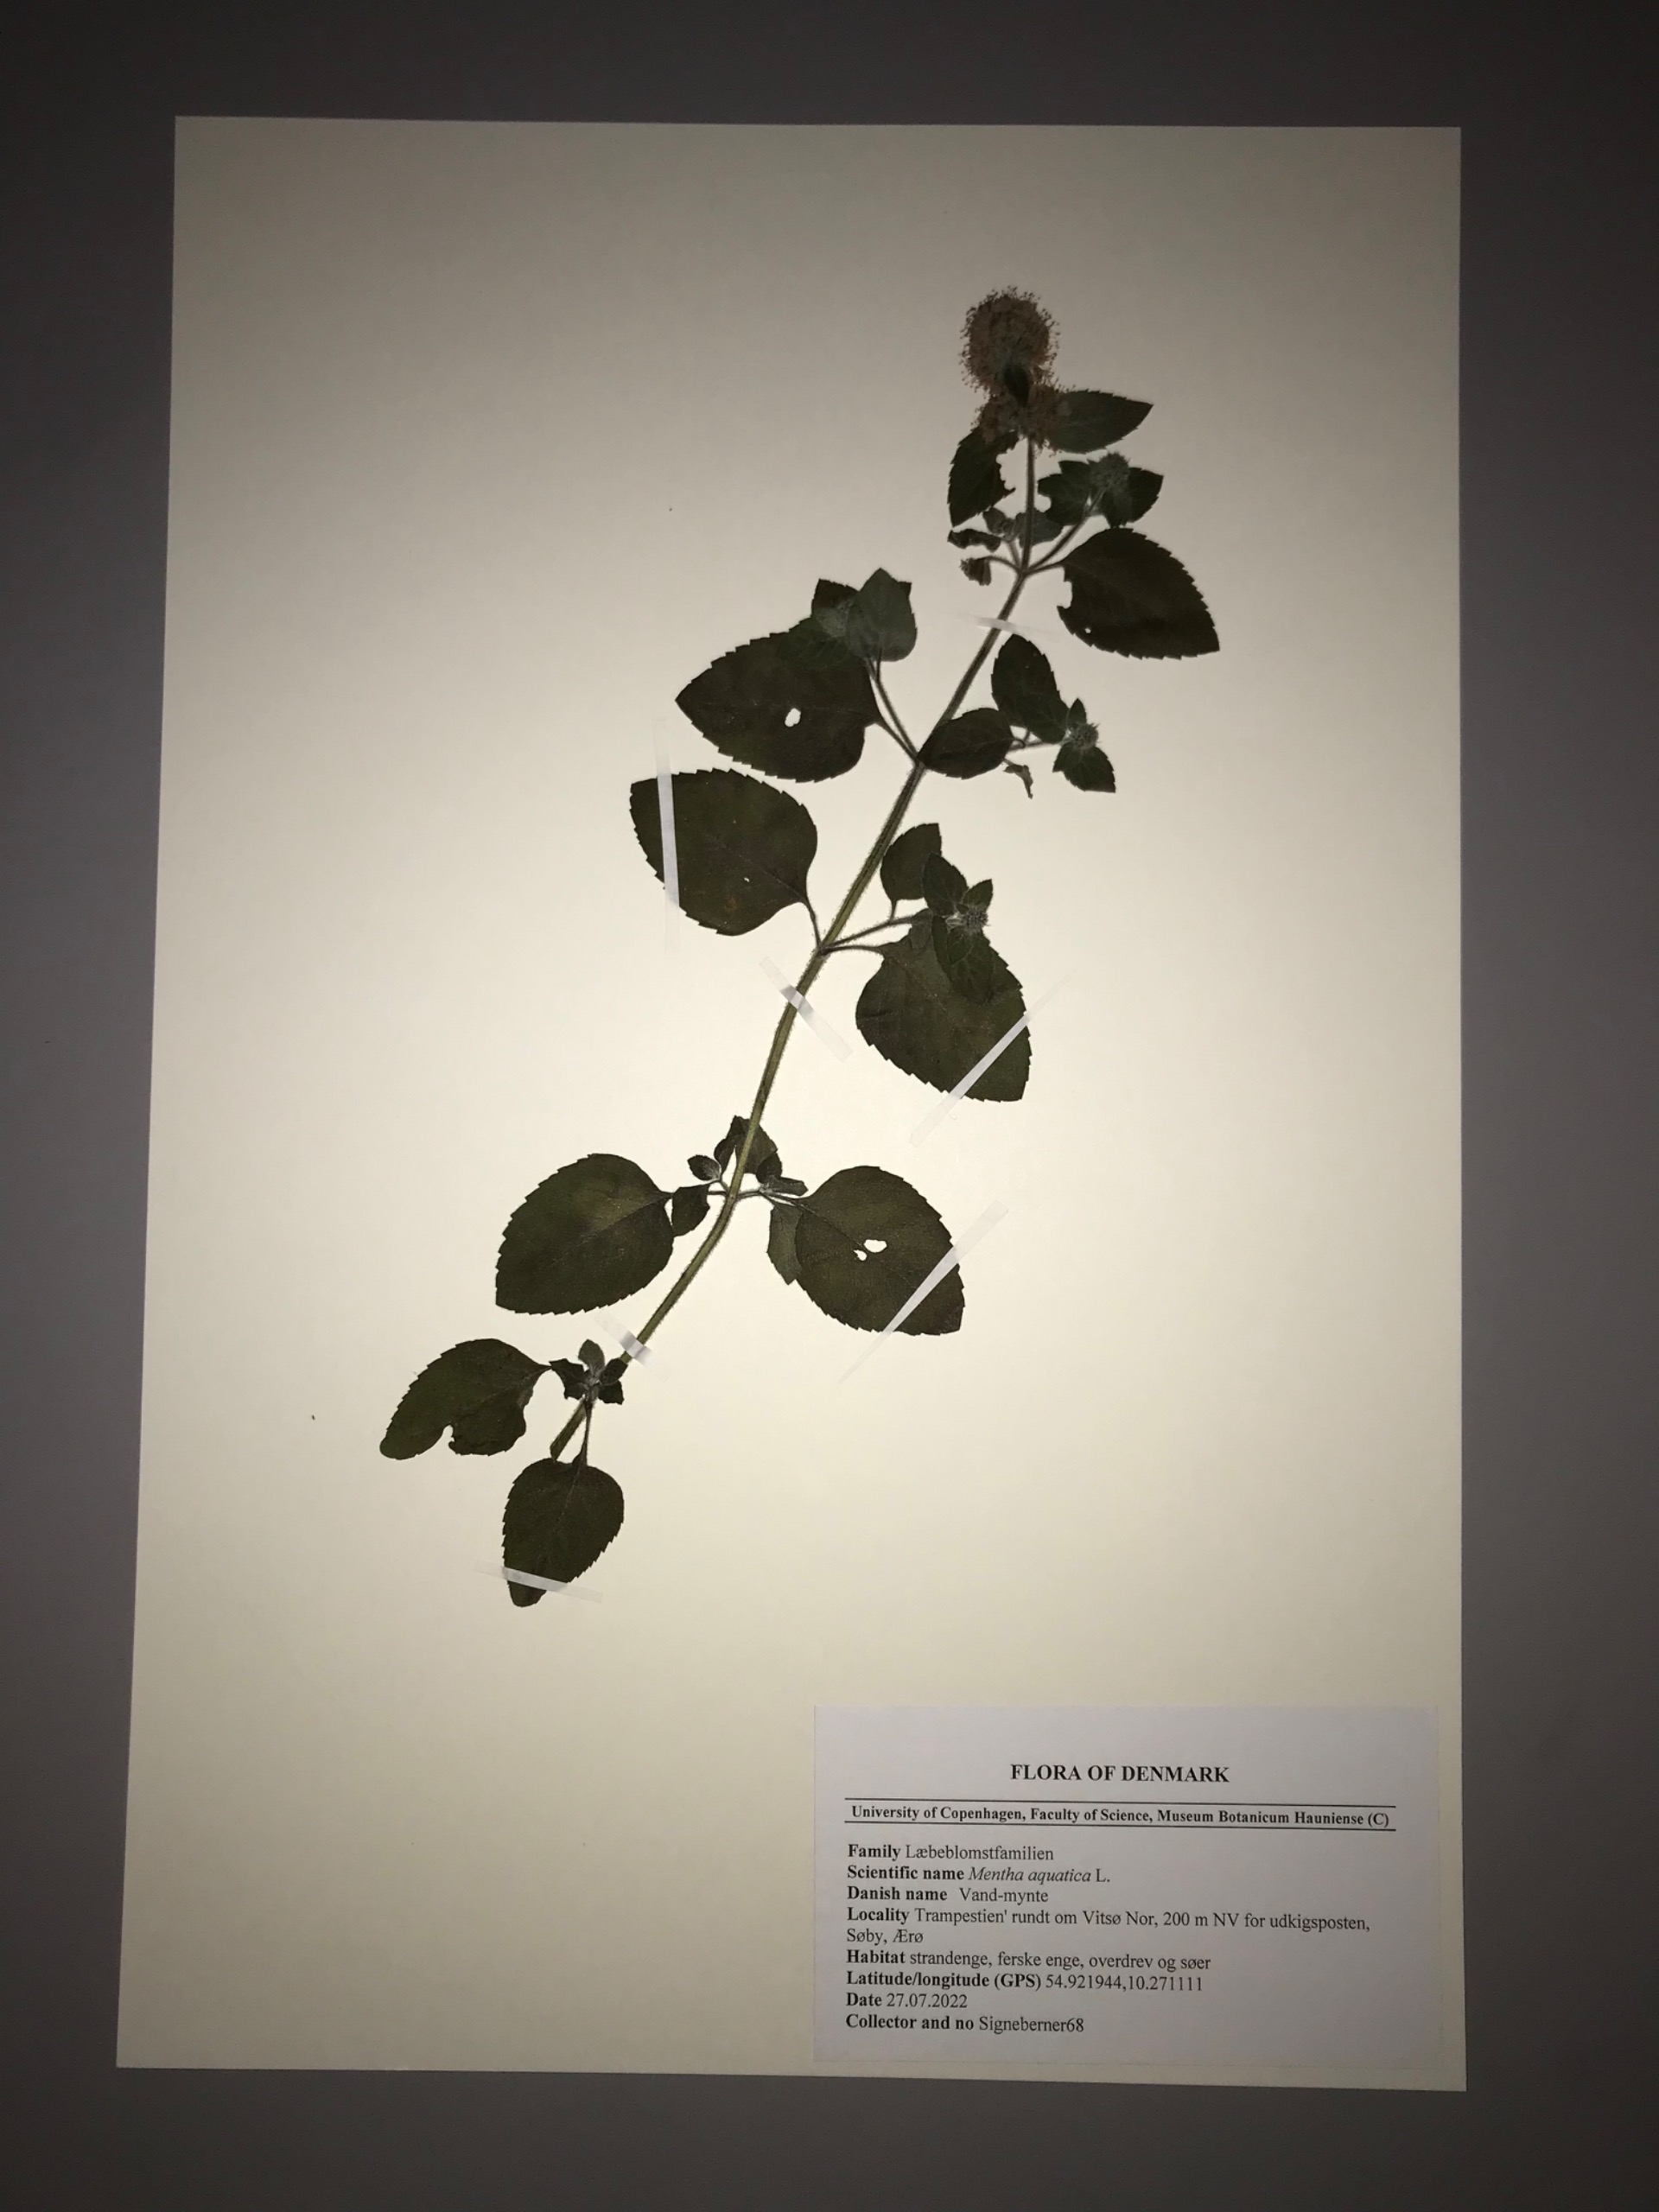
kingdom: Plantae
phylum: Tracheophyta
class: Magnoliopsida
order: Lamiales
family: Lamiaceae
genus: Mentha
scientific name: Mentha aquatica
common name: Vand-mynte
